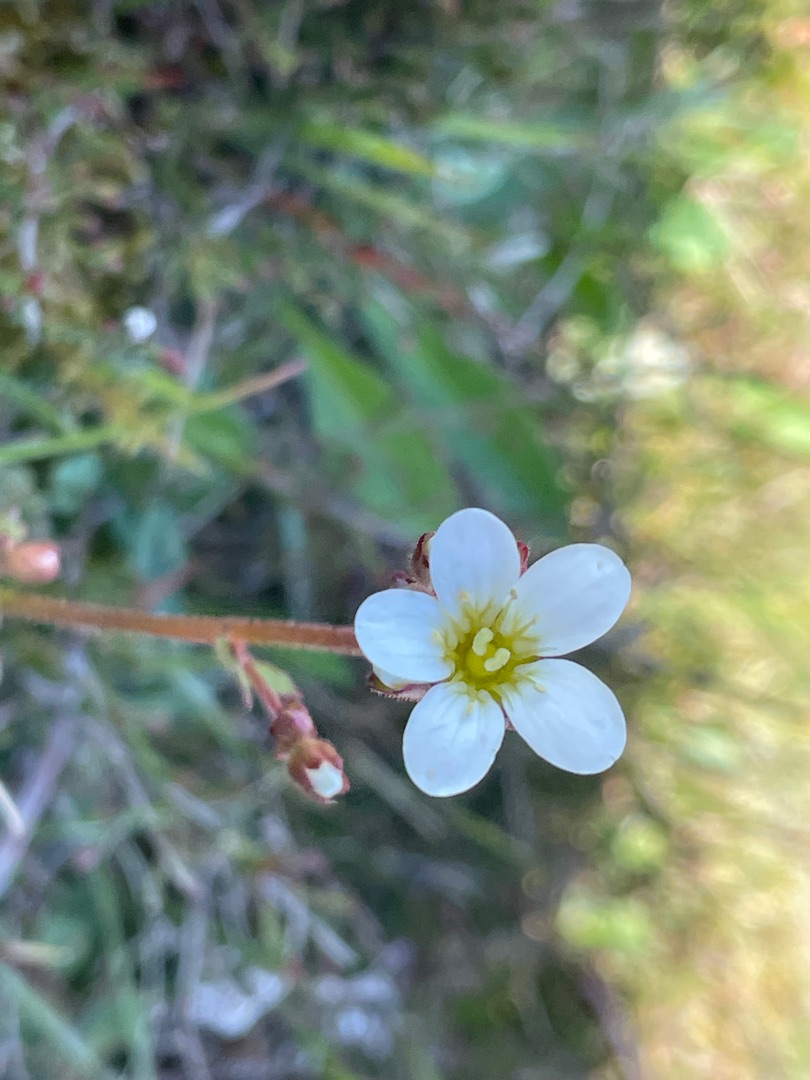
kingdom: Plantae
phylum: Tracheophyta
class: Magnoliopsida
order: Saxifragales
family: Saxifragaceae
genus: Saxifraga
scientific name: Saxifraga granulata
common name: Kornet stenbræk
